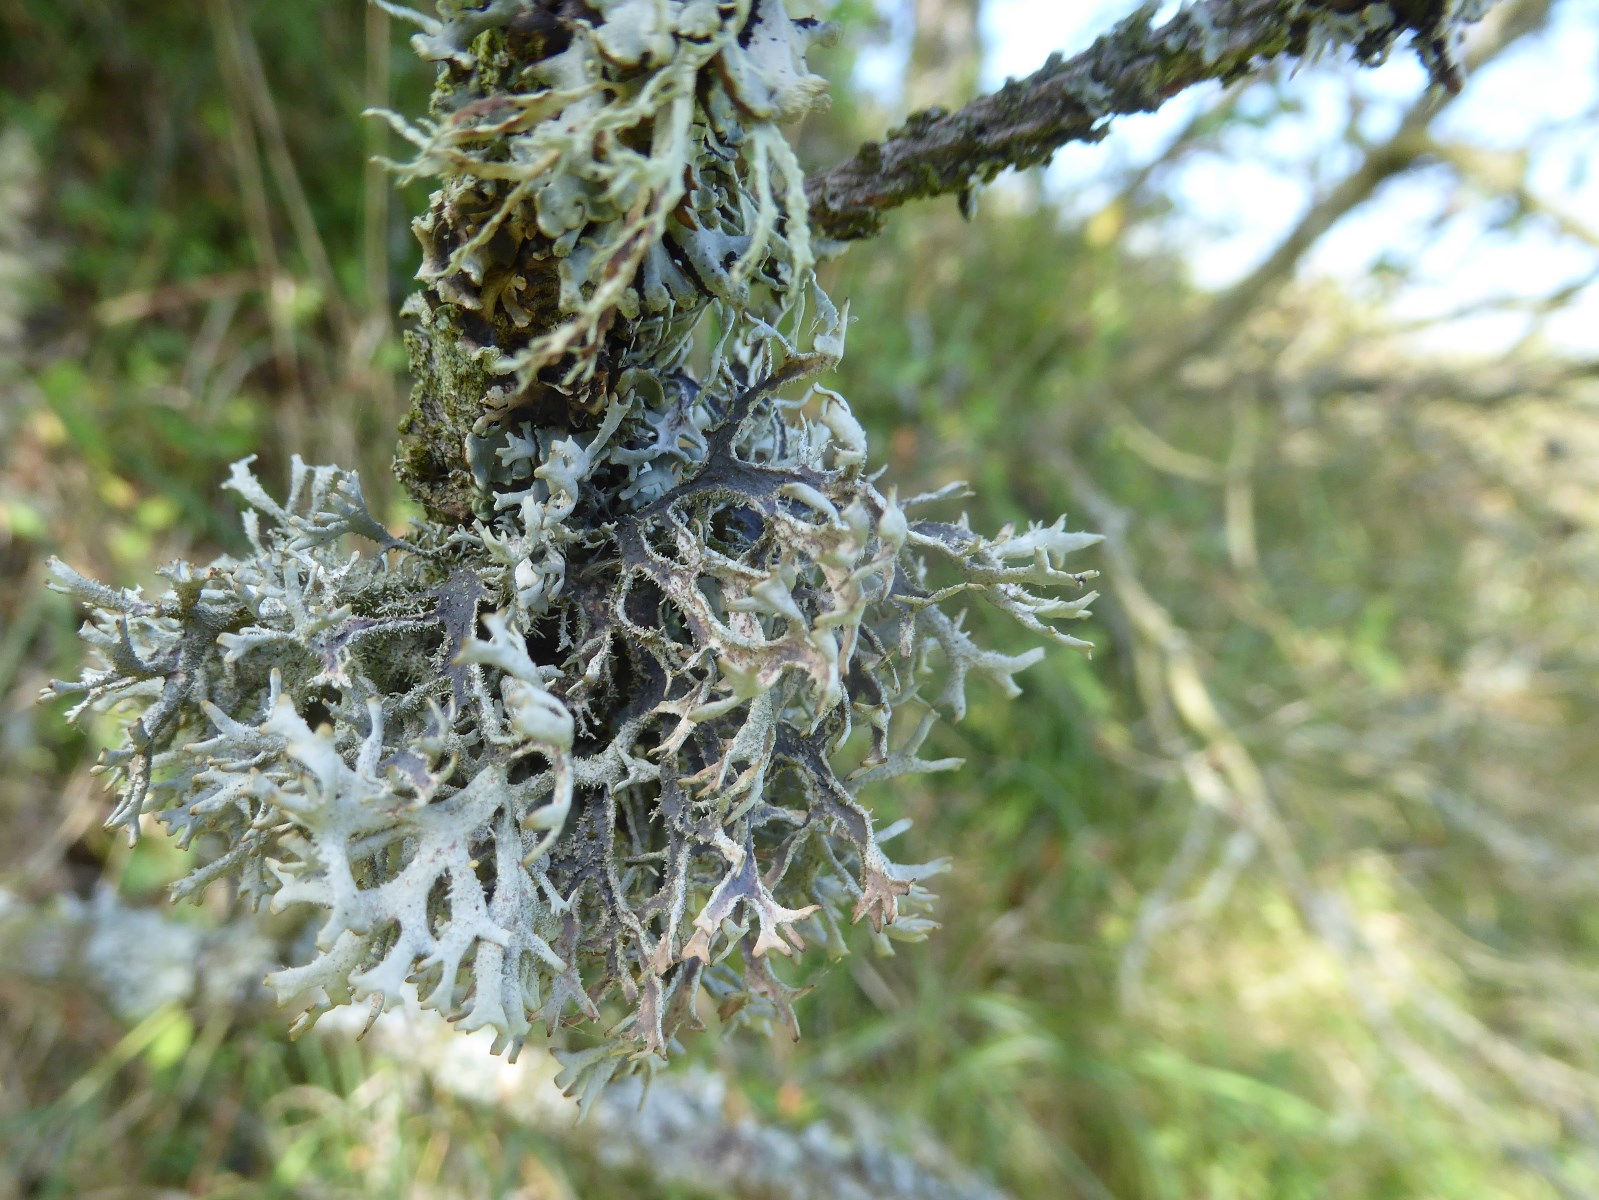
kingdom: Fungi
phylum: Ascomycota
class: Lecanoromycetes
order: Lecanorales
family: Parmeliaceae
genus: Pseudevernia
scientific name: Pseudevernia furfuracea
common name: grå fyrrelav
